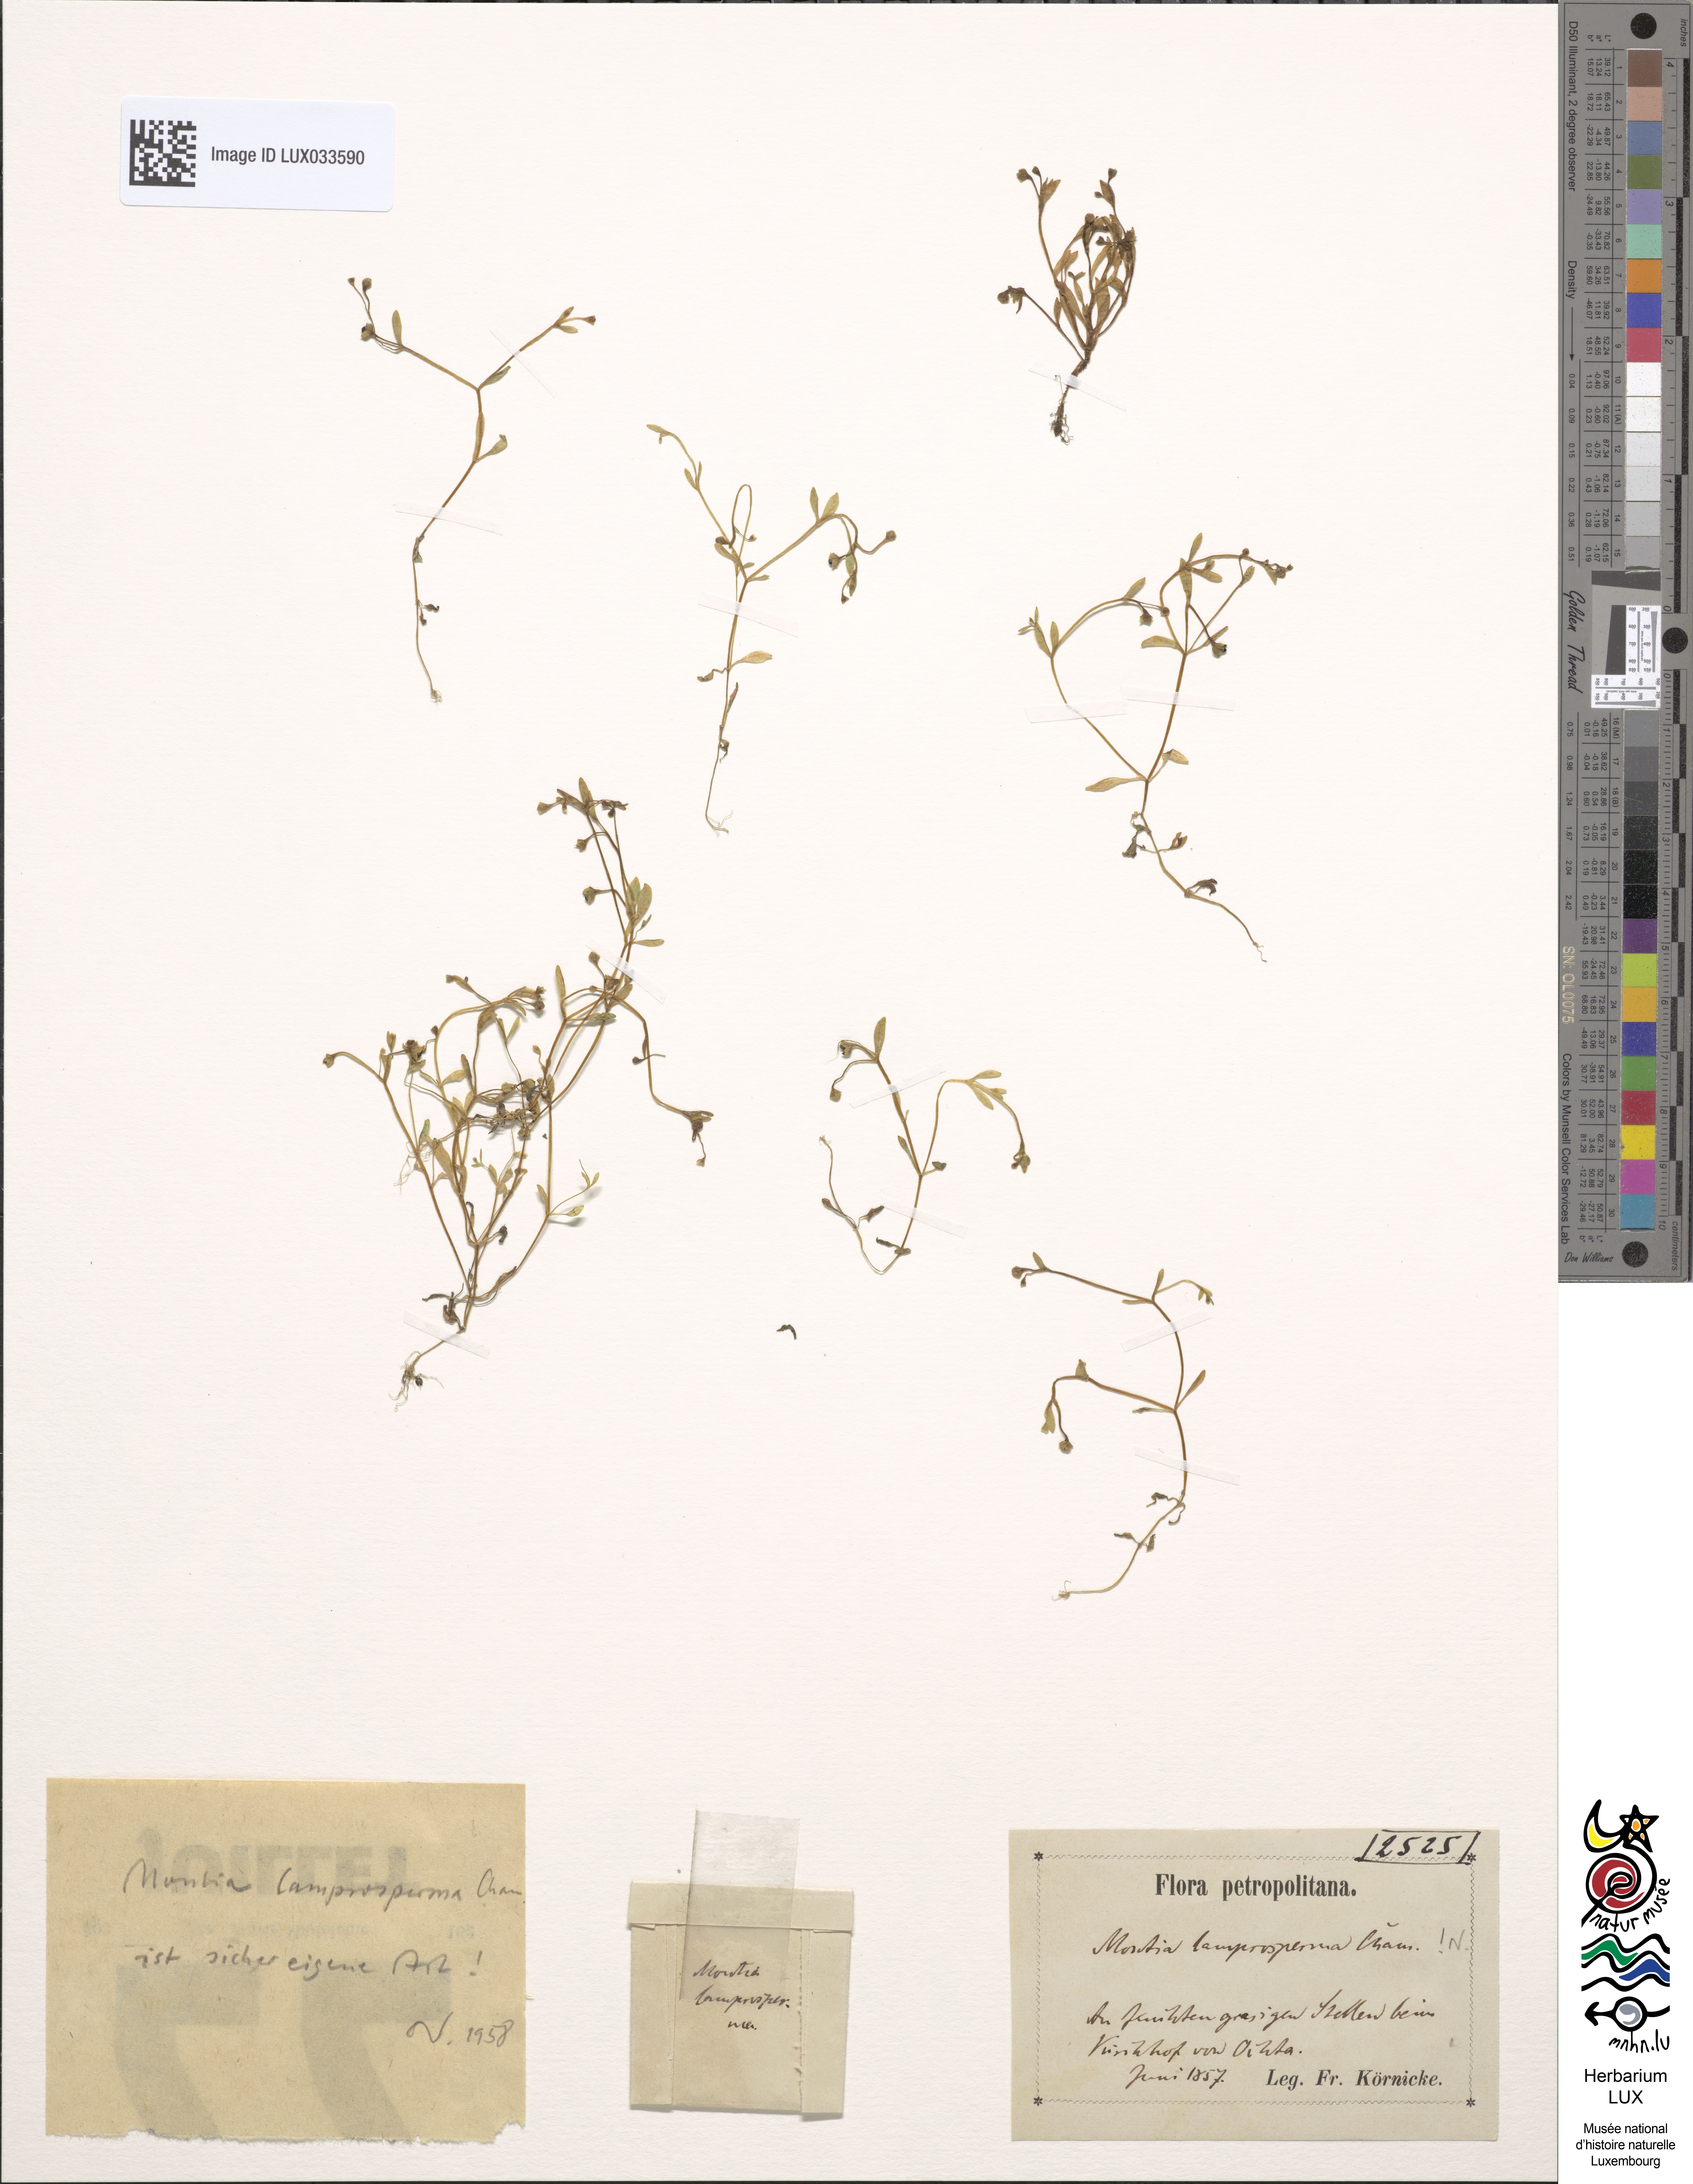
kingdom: Plantae
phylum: Tracheophyta
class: Magnoliopsida
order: Caryophyllales
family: Montiaceae
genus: Montia
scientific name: Montia fontana
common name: Blinks
